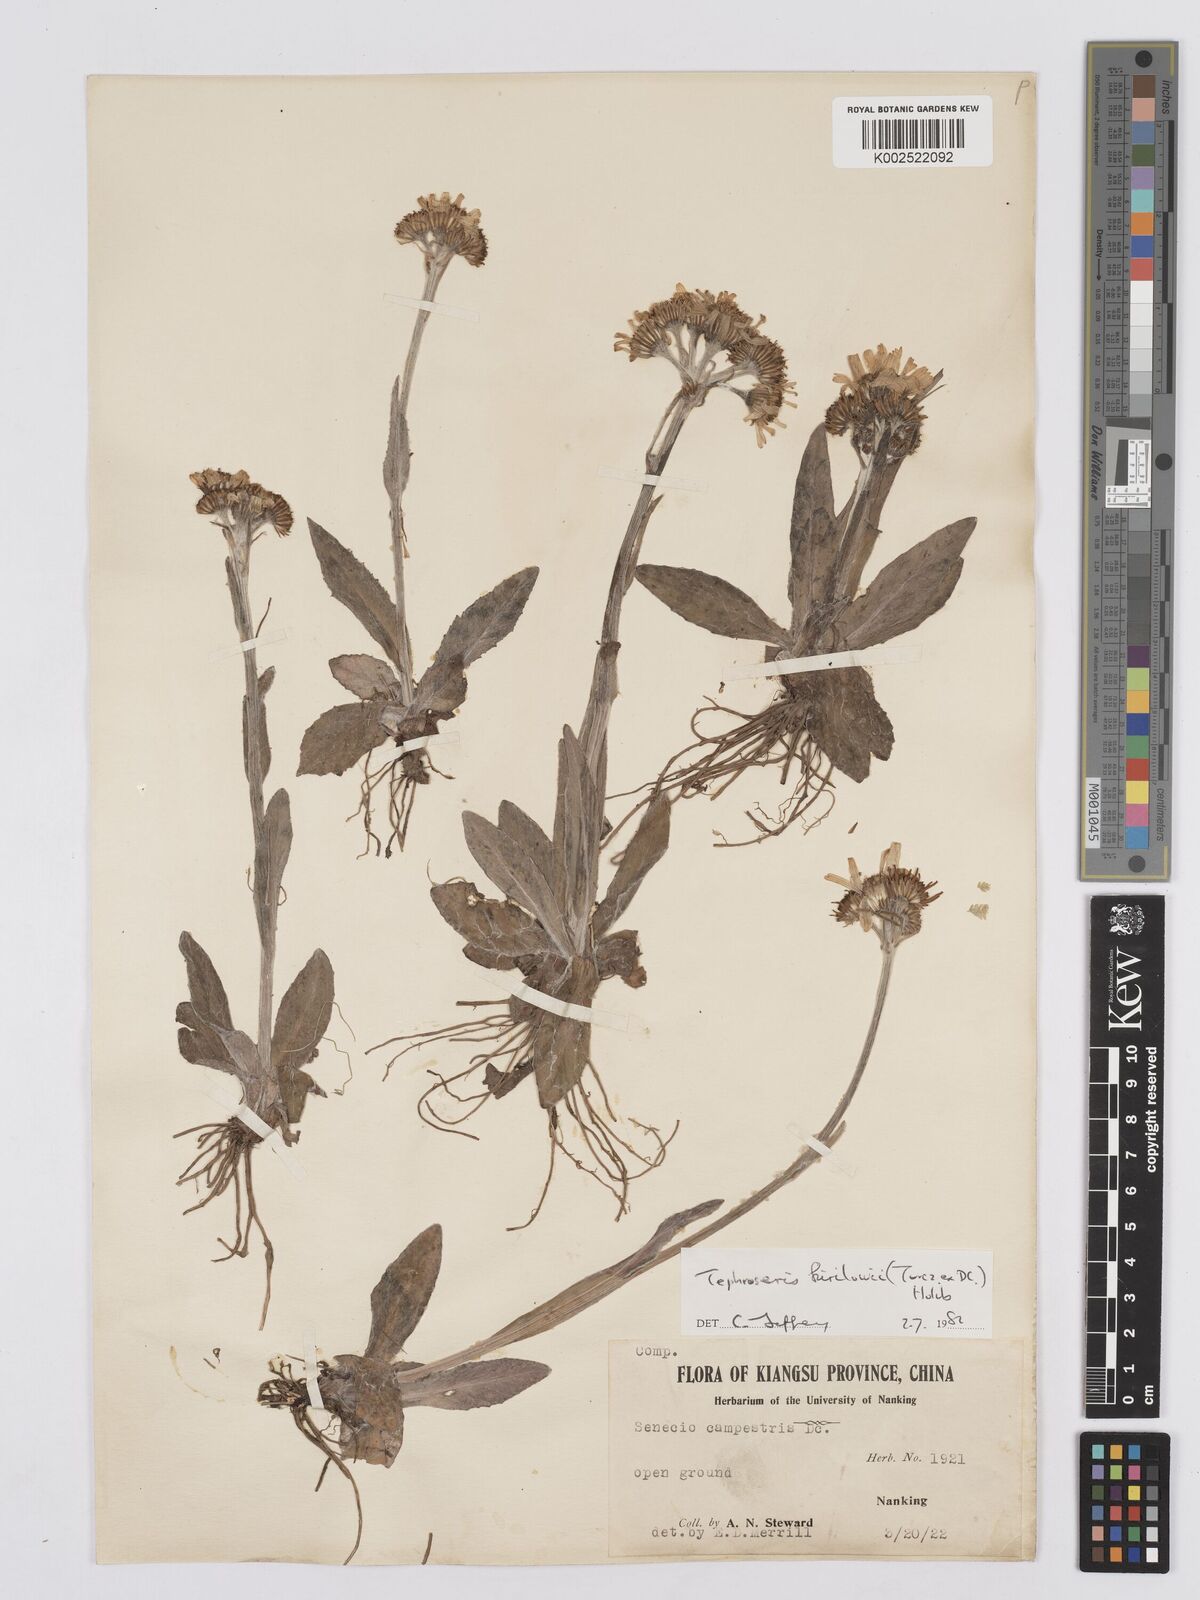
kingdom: Plantae
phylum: Tracheophyta
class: Magnoliopsida
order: Asterales
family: Asteraceae
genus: Tephroseris
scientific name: Tephroseris kirilowii
